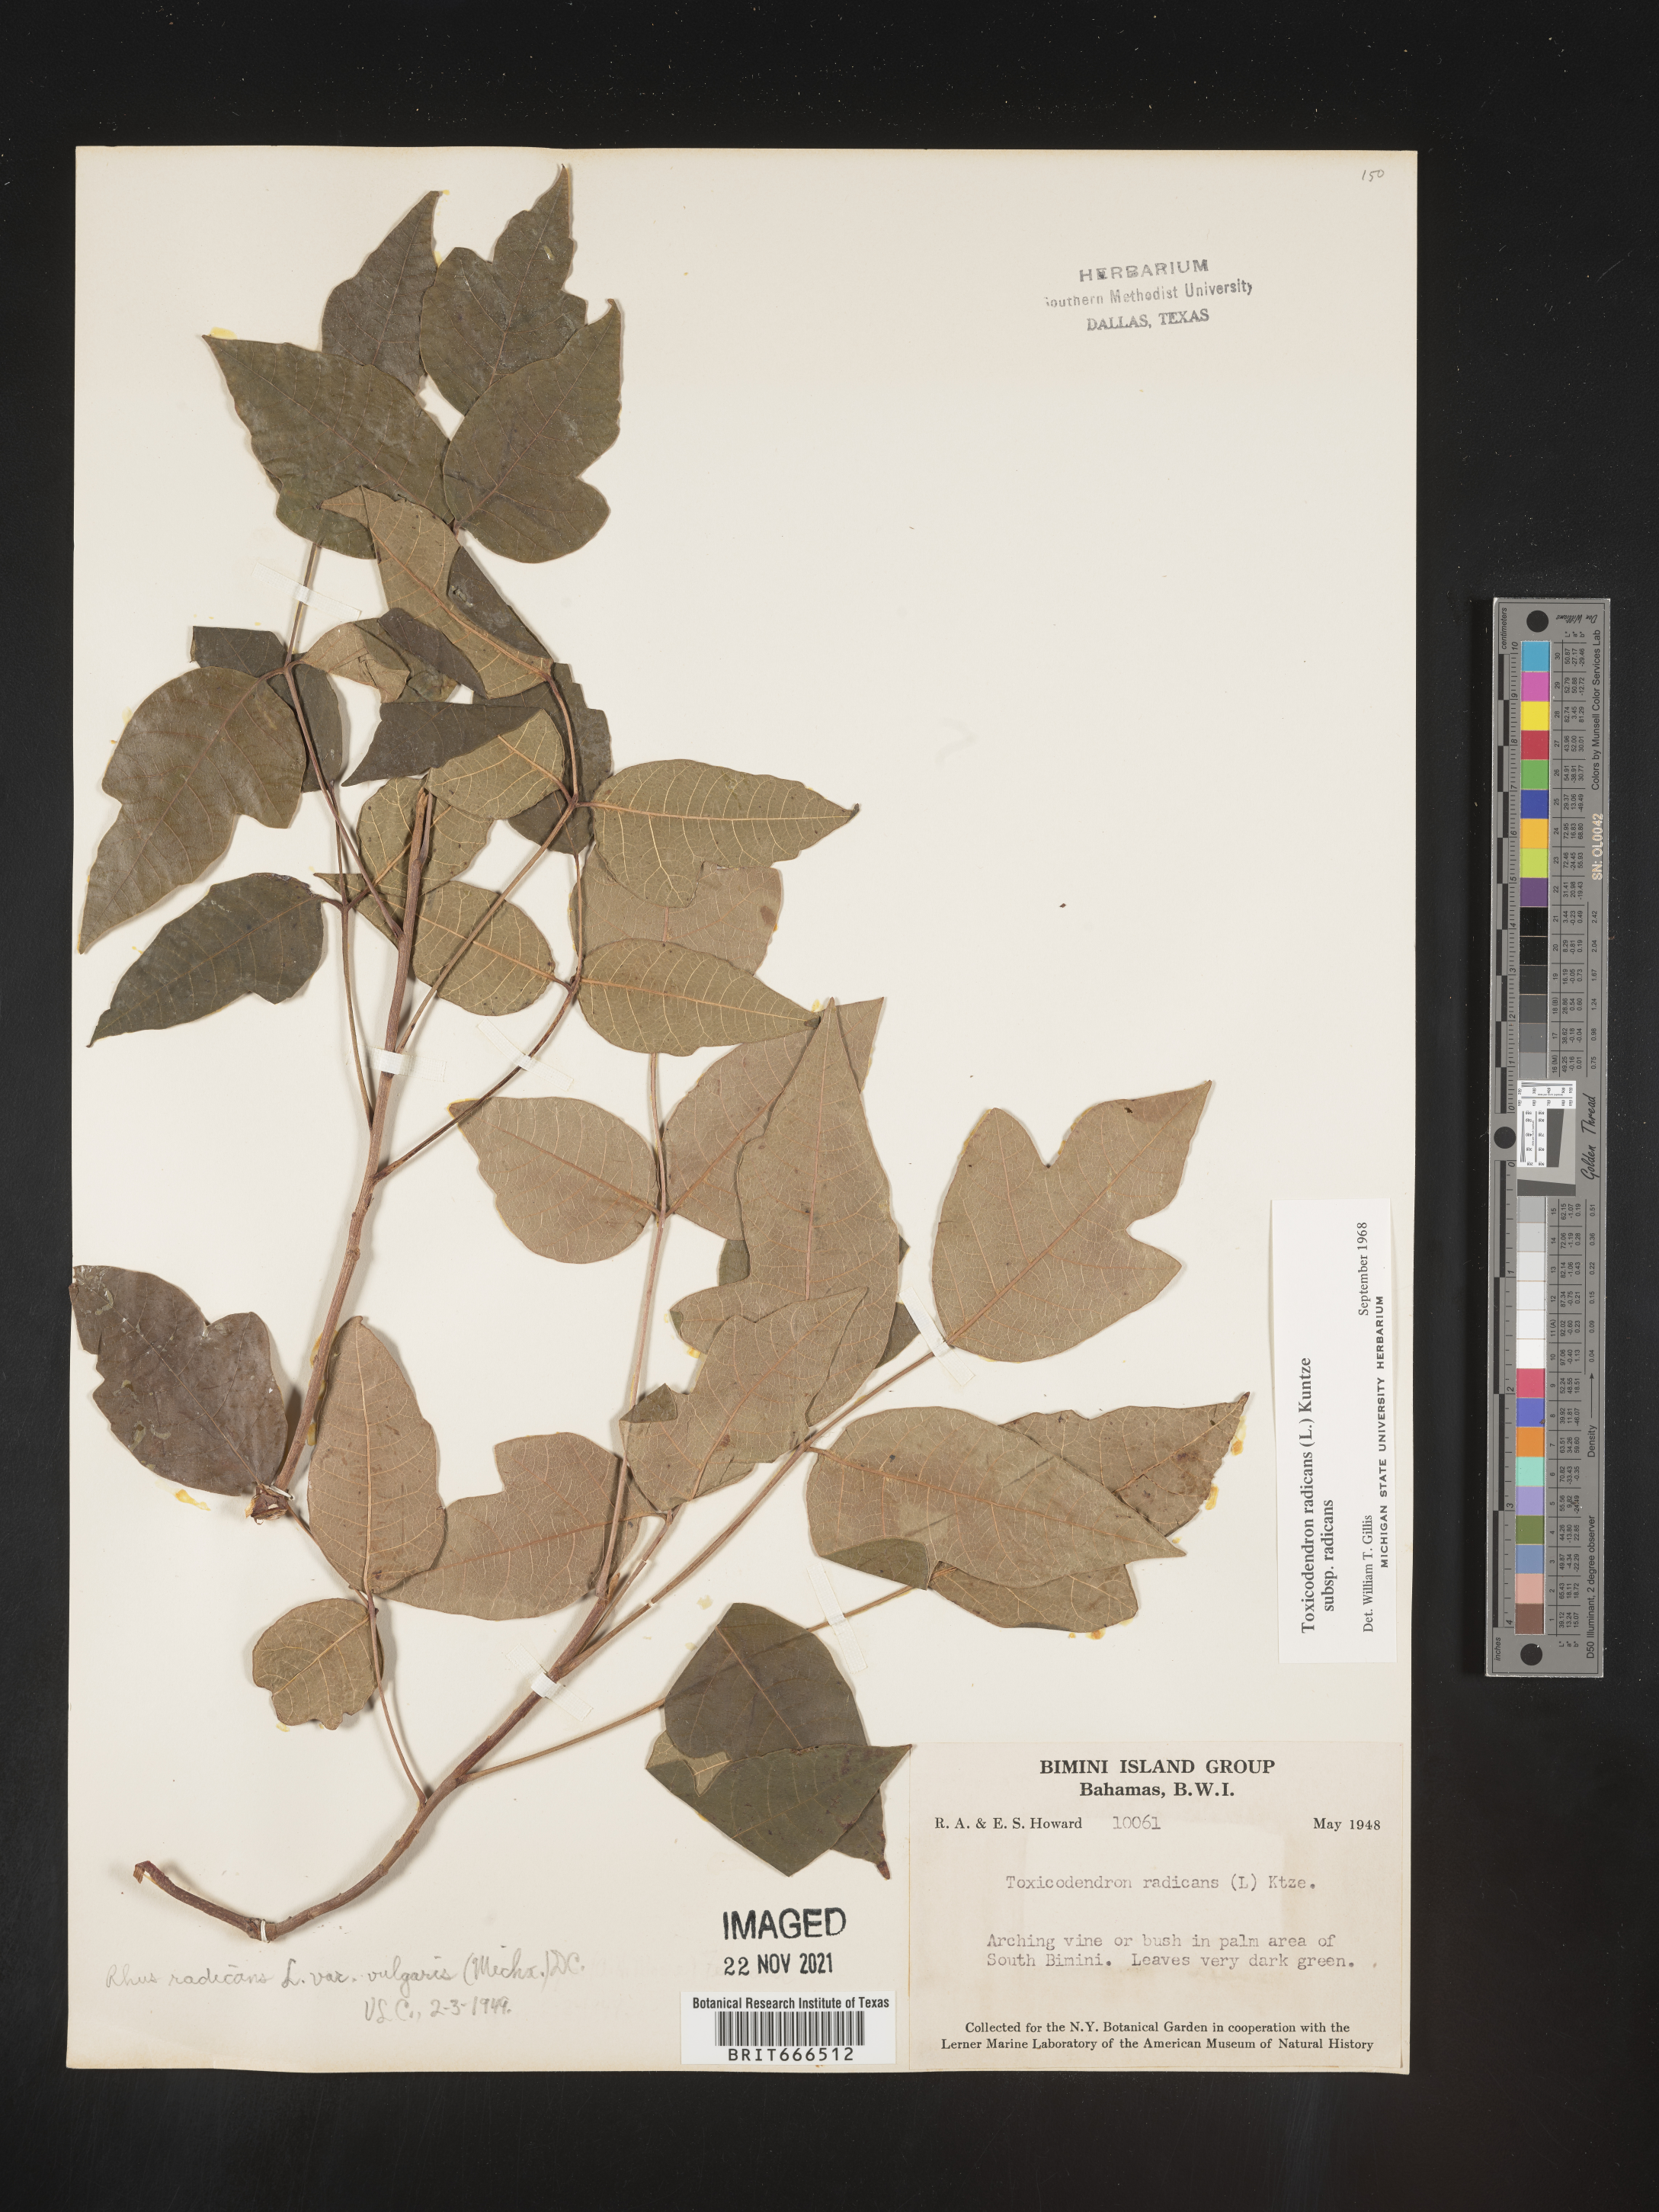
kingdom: Plantae
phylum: Tracheophyta
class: Magnoliopsida
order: Sapindales
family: Anacardiaceae
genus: Toxicodendron
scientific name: Toxicodendron
